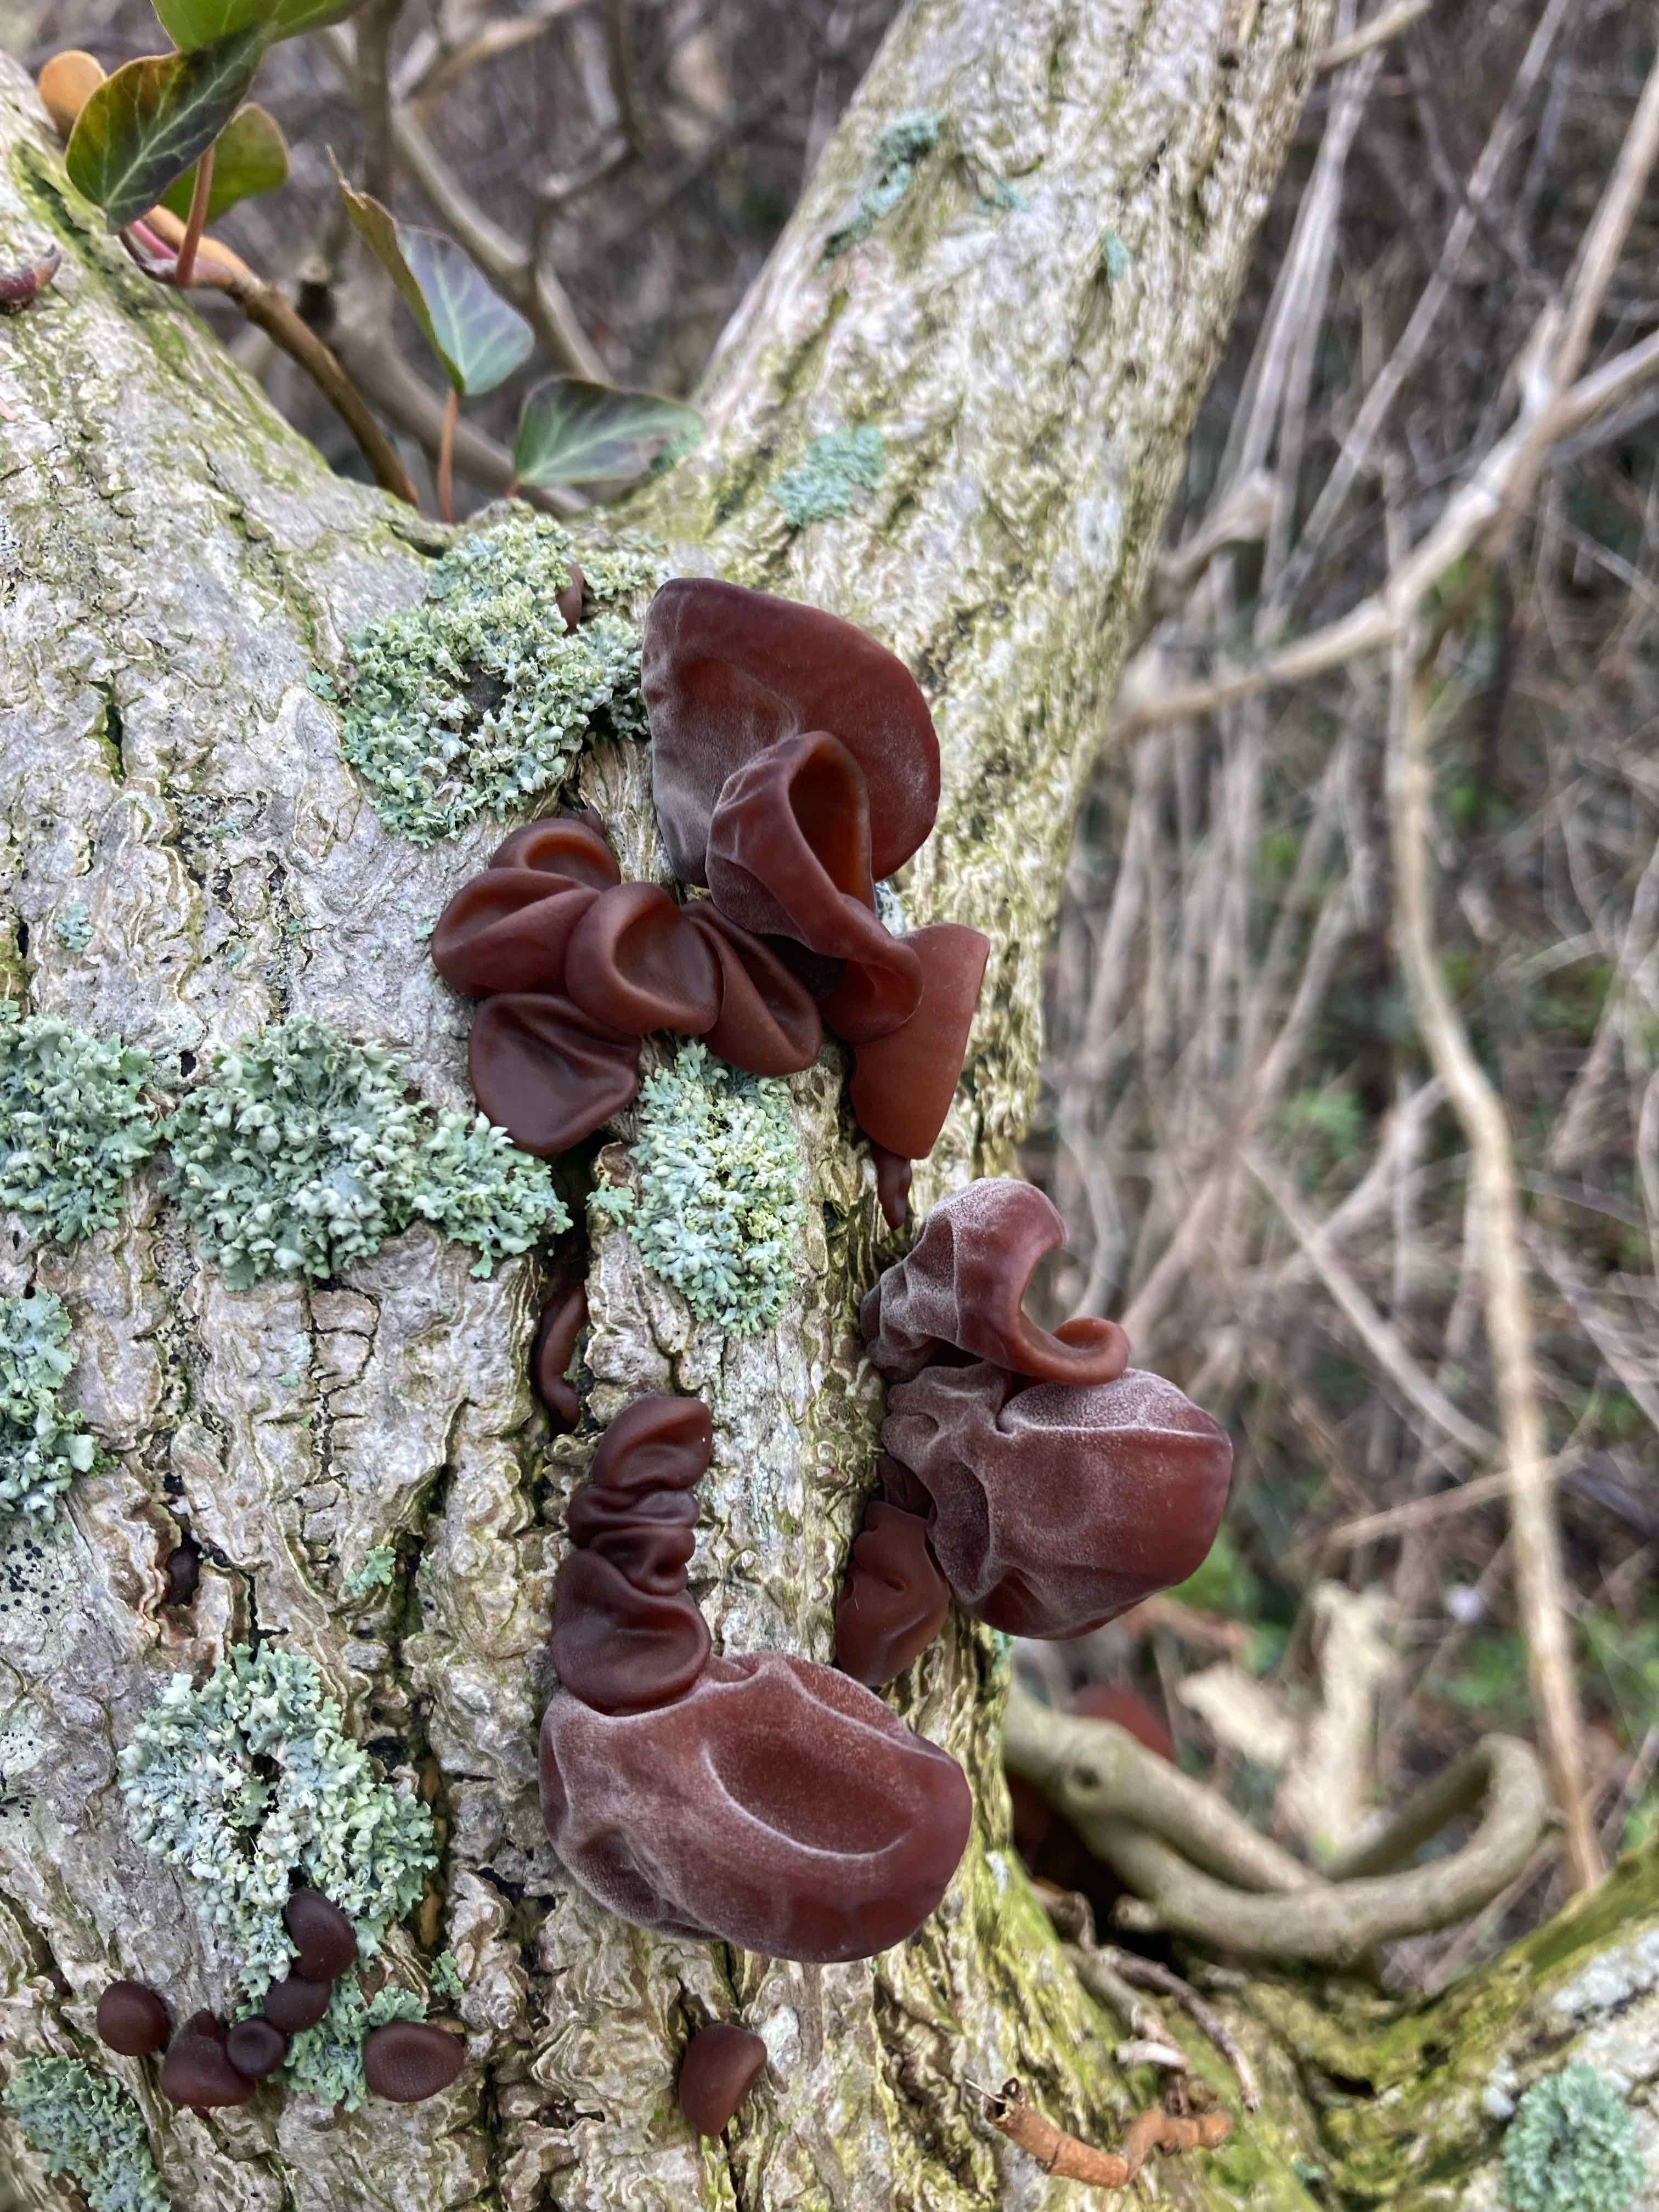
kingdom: Fungi
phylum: Basidiomycota
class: Agaricomycetes
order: Auriculariales
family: Auriculariaceae
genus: Auricularia
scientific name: Auricularia auricula-judae
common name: almindelig judasøre
